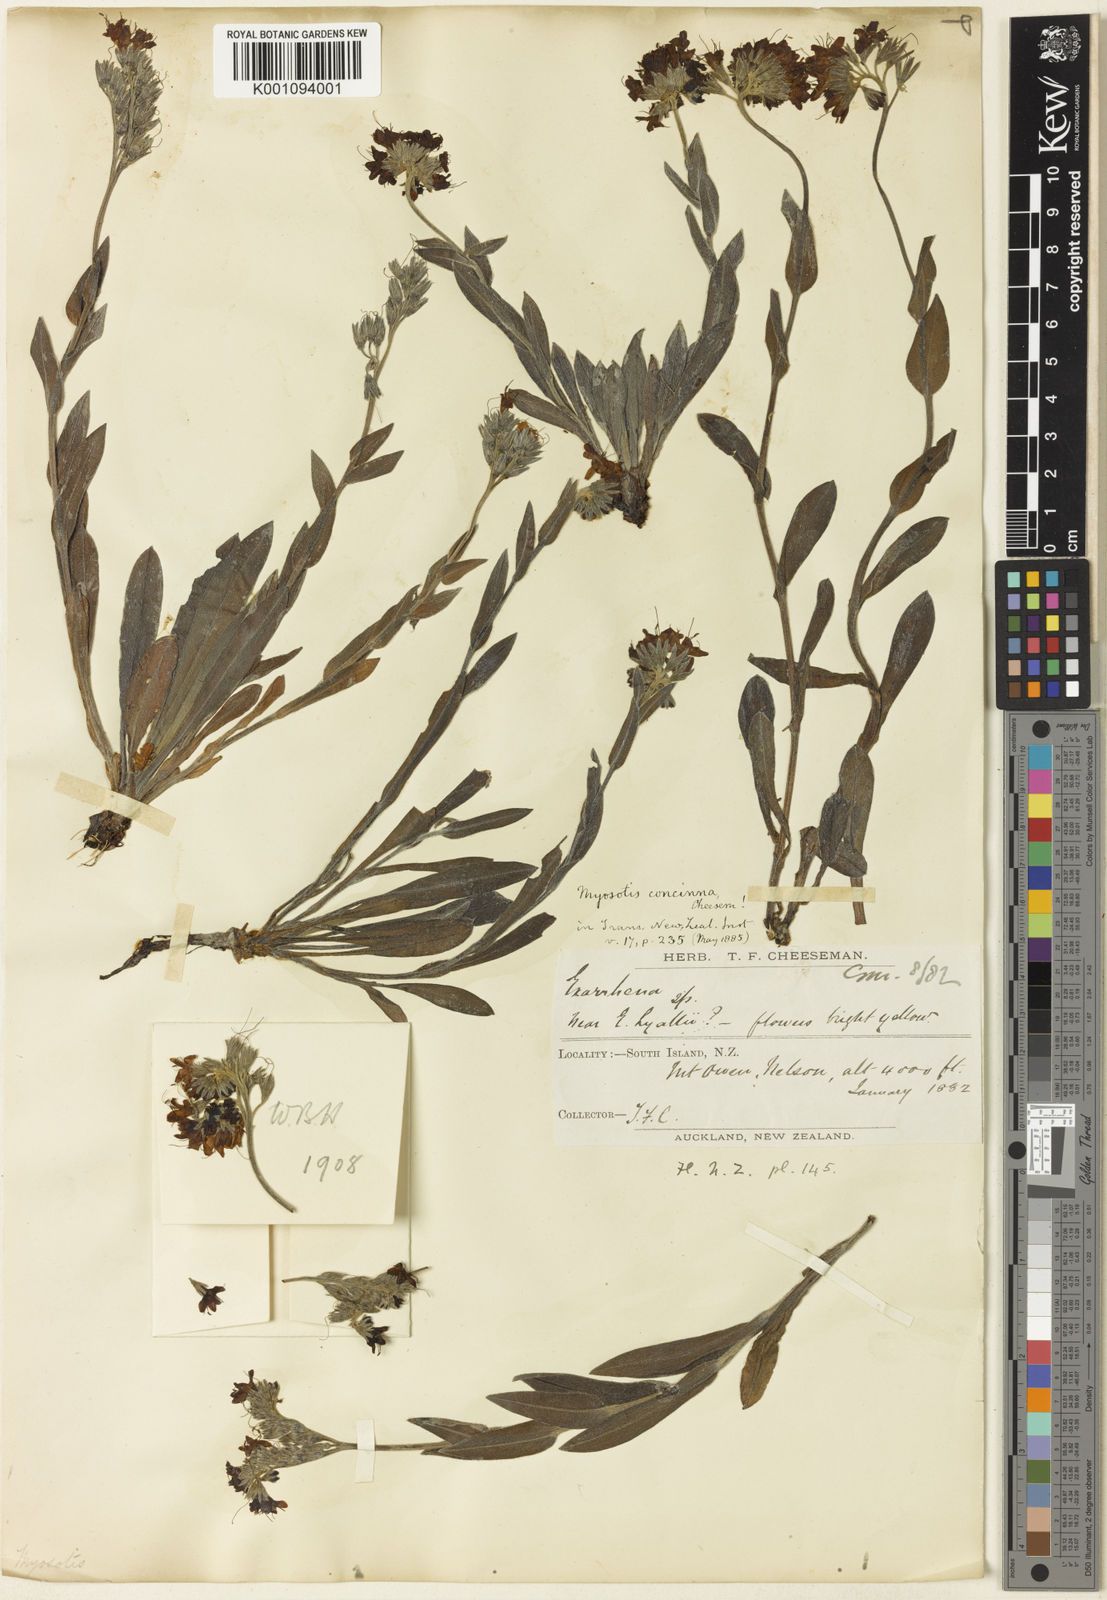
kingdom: Plantae
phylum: Tracheophyta
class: Magnoliopsida
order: Boraginales
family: Boraginaceae
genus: Myosotis
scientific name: Myosotis concinna
